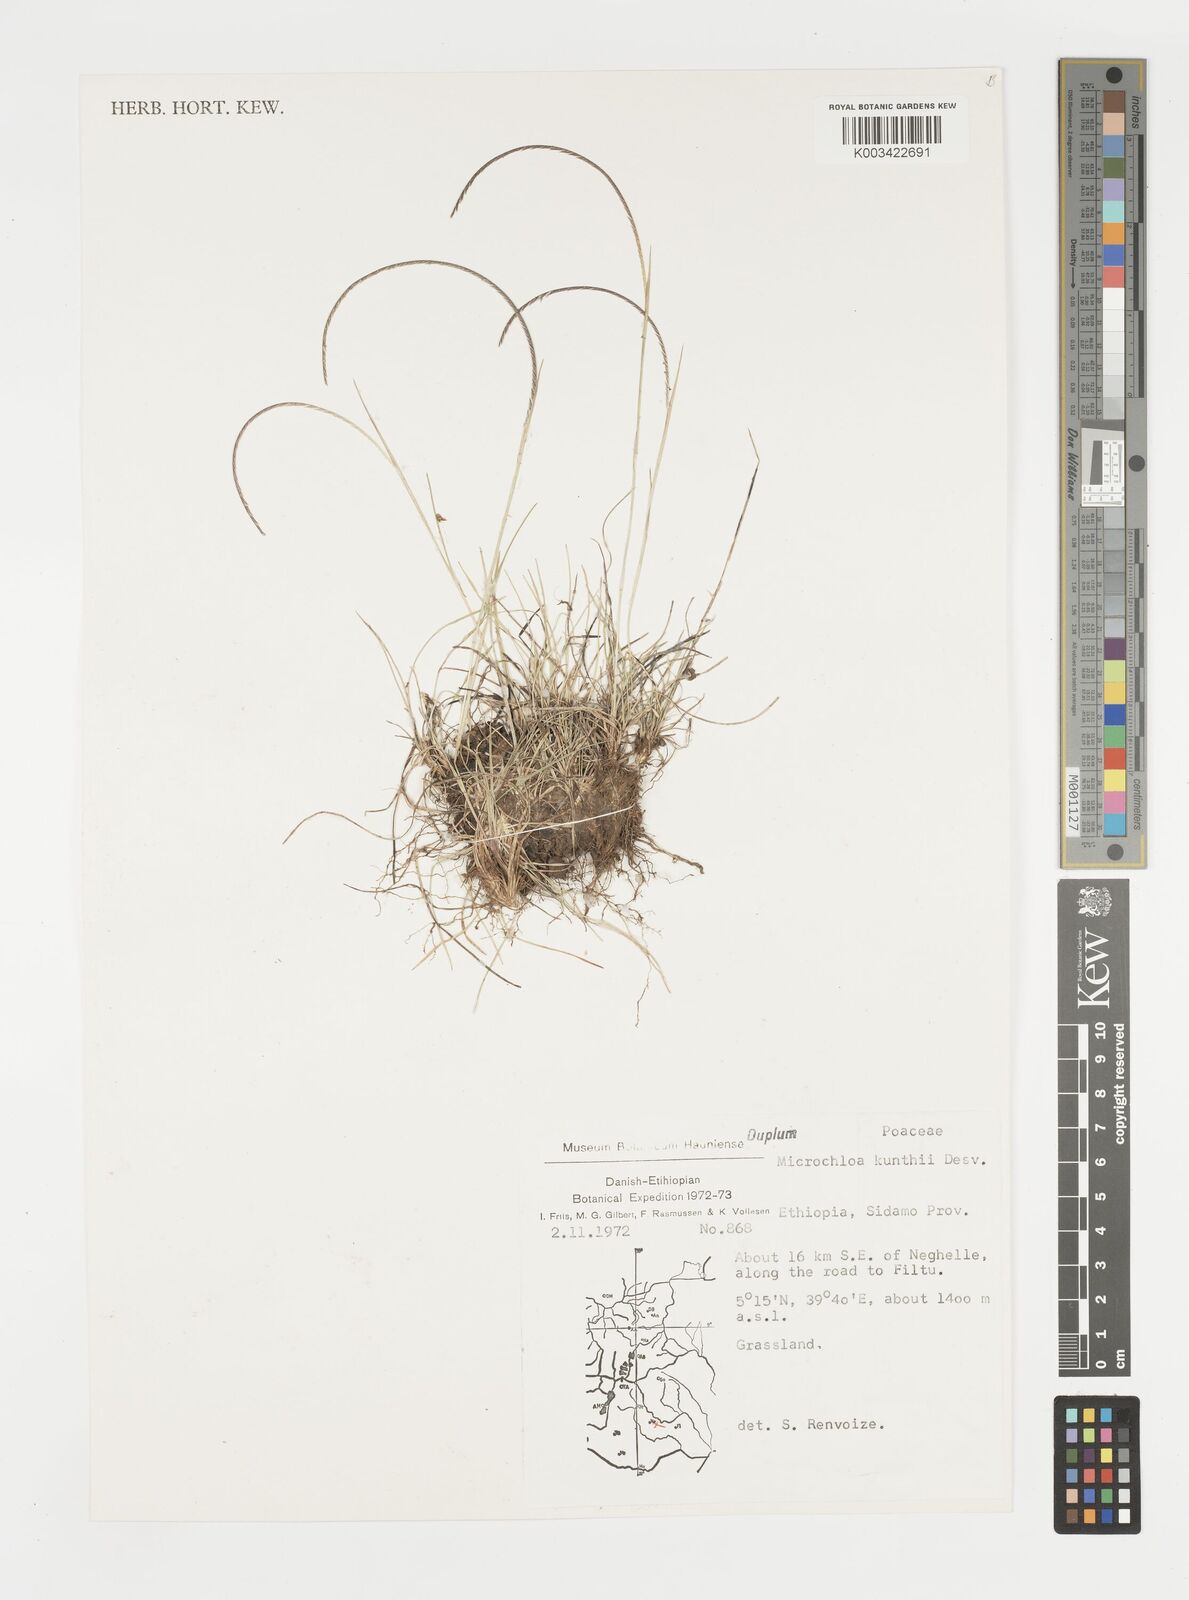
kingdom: Plantae
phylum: Tracheophyta
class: Liliopsida
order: Poales
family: Poaceae
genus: Microchloa
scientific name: Microchloa kunthii
